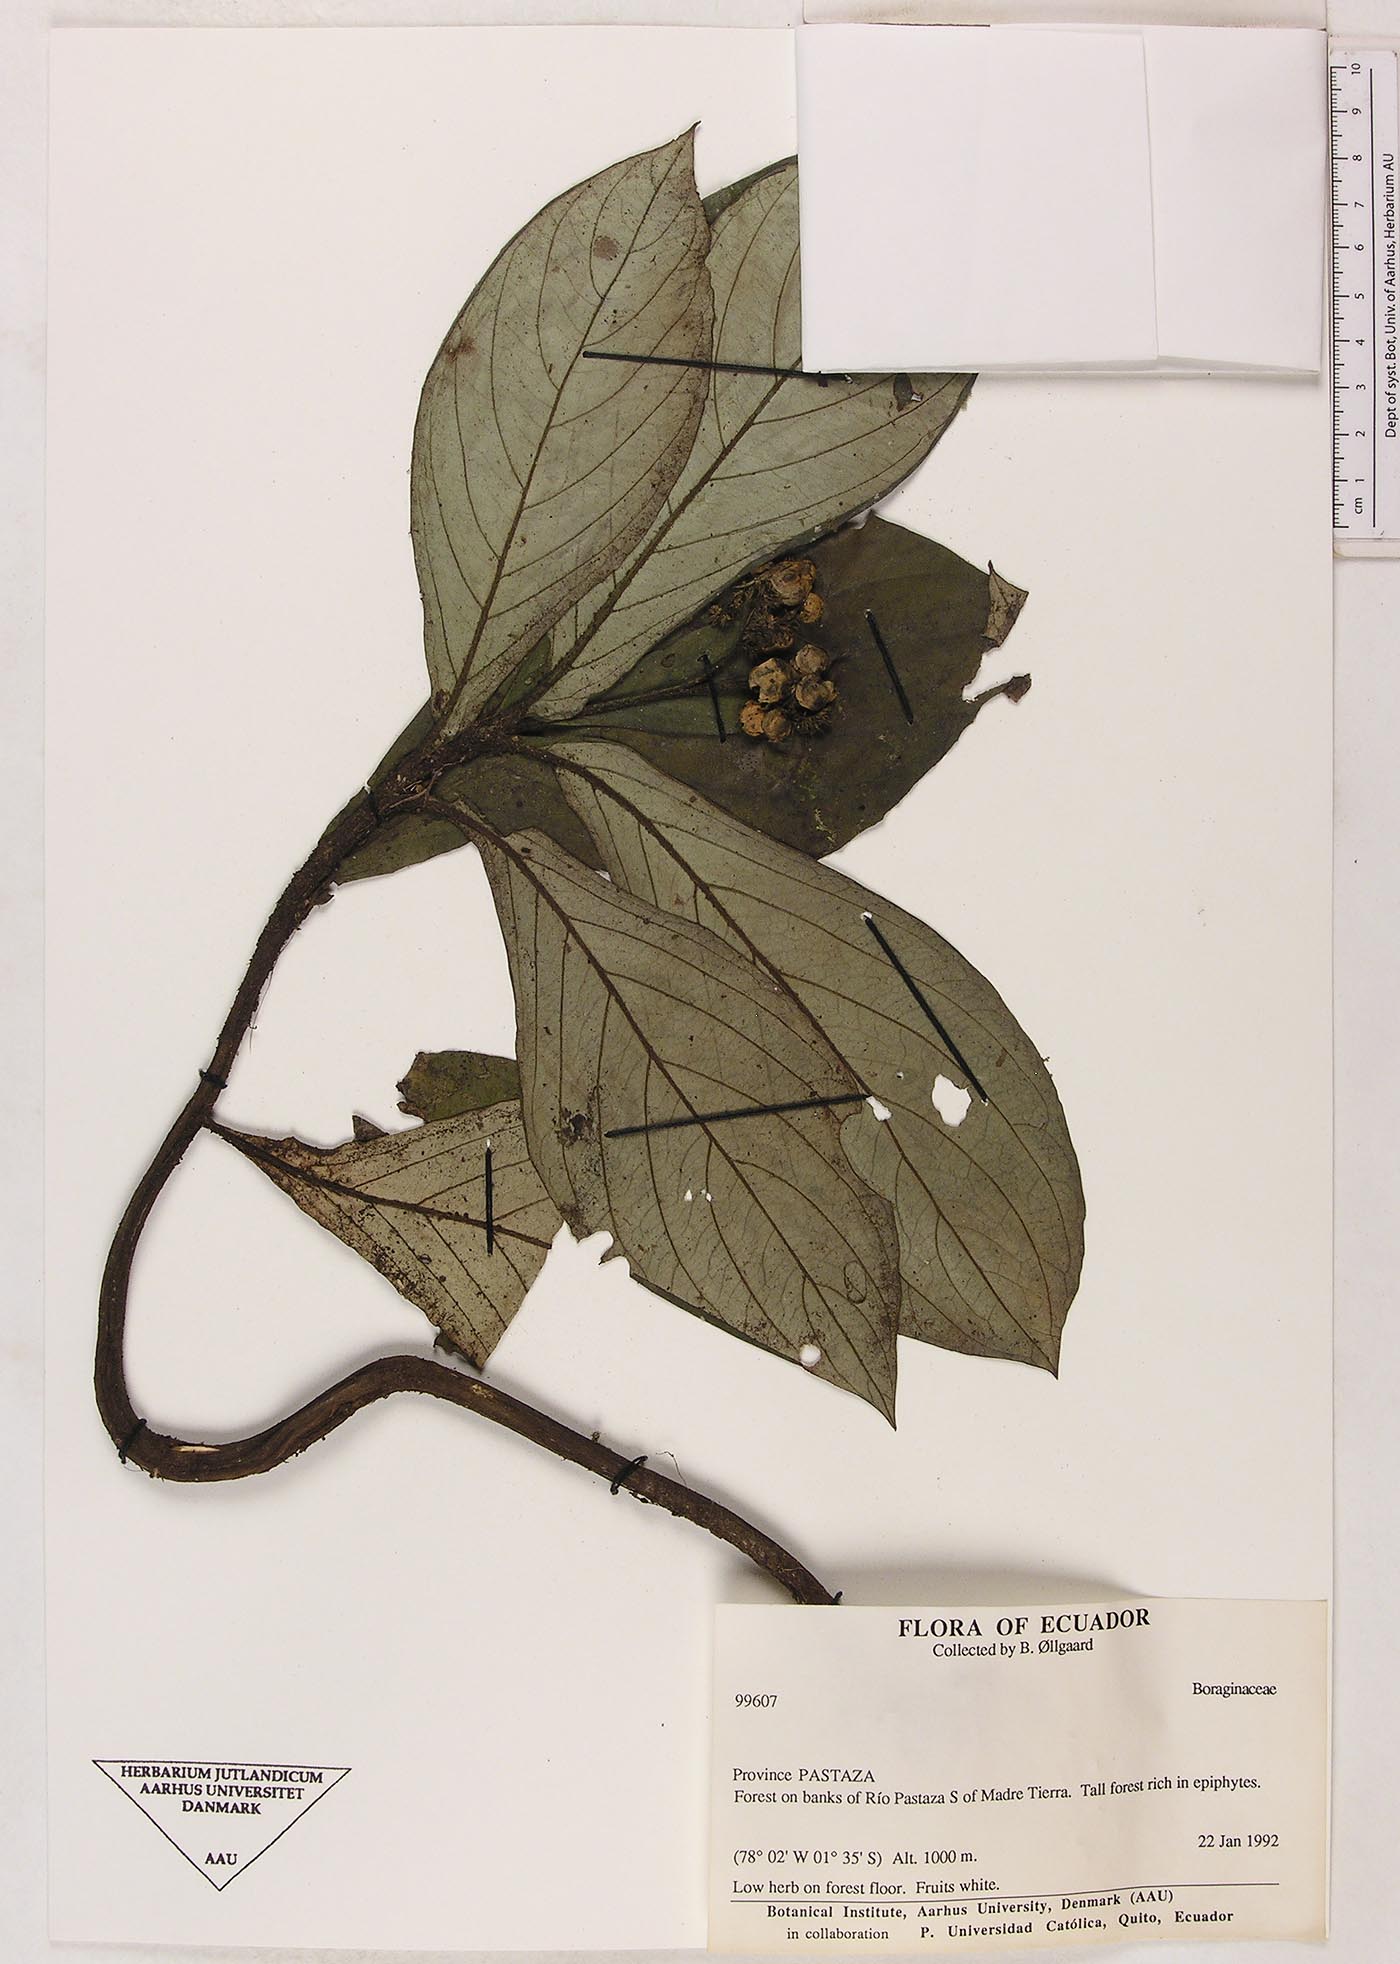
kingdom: Plantae
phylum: Tracheophyta
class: Magnoliopsida
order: Boraginales
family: Boraginaceae
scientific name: Boraginaceae
